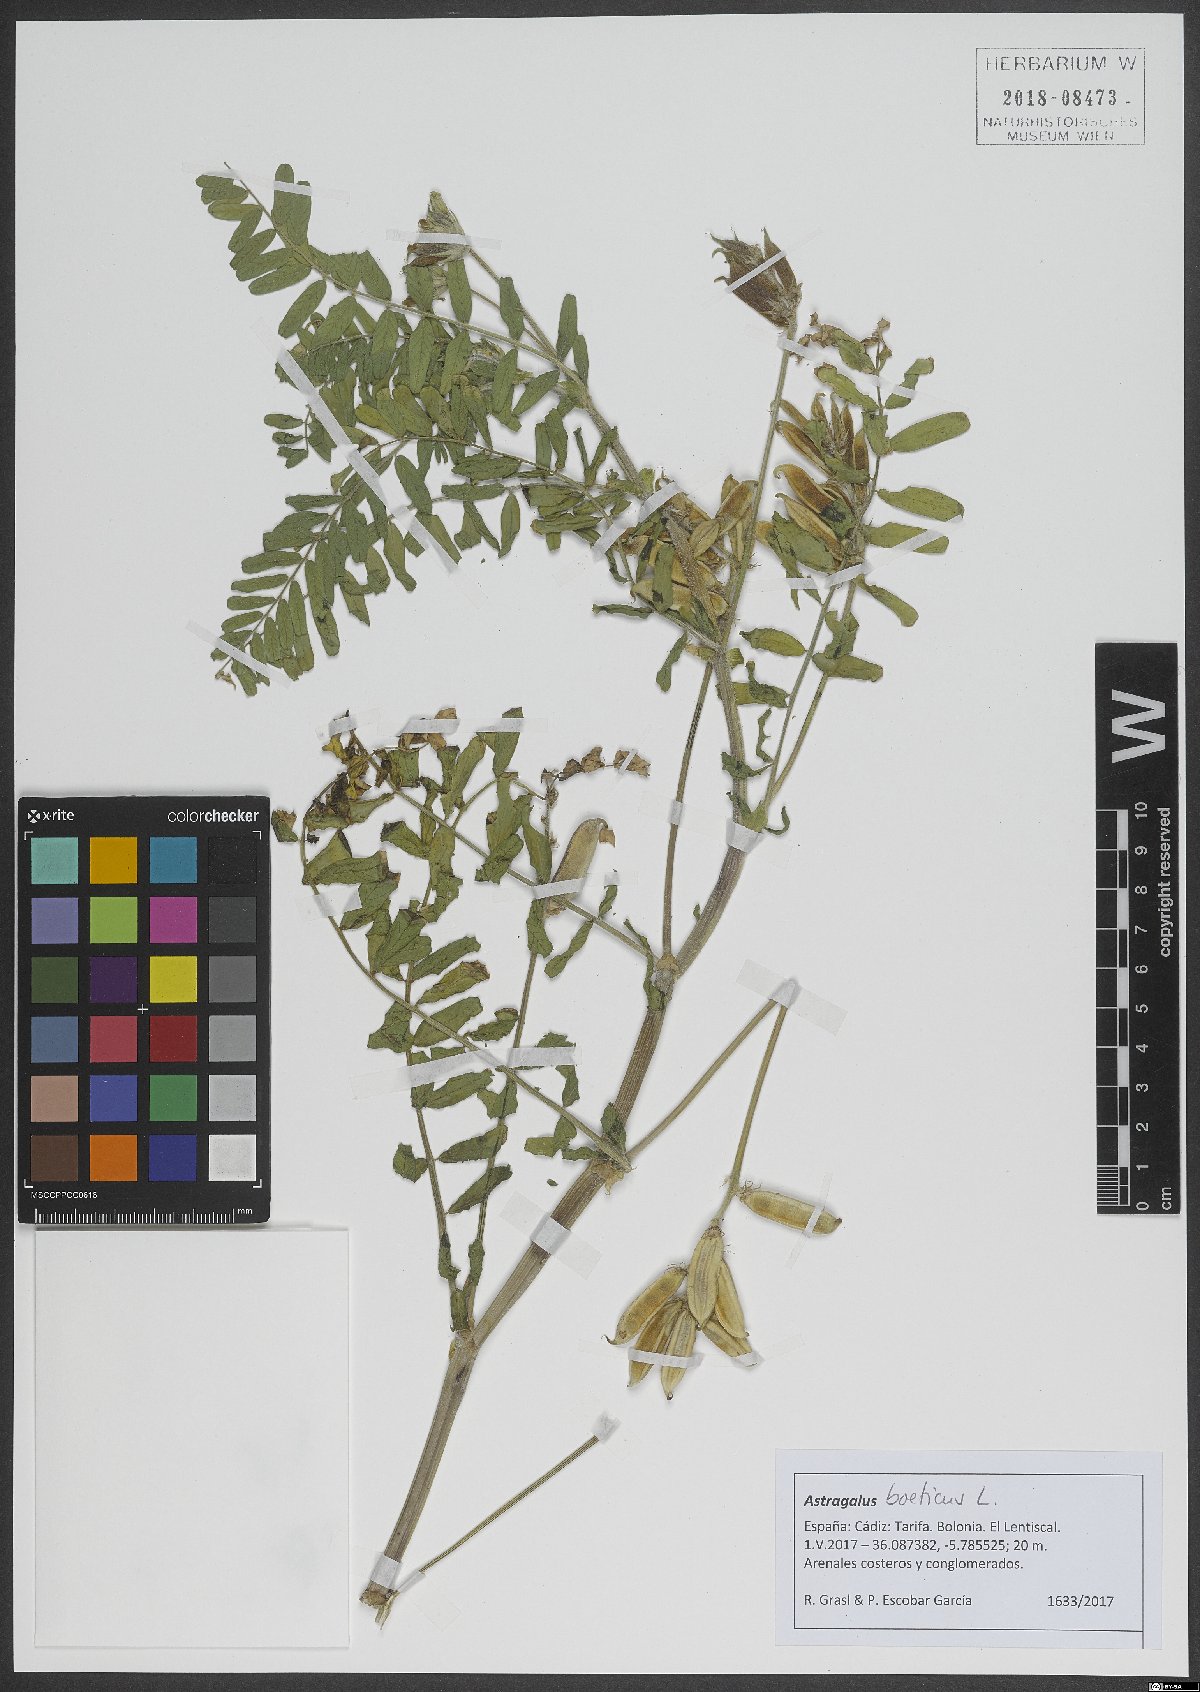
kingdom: Plantae
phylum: Tracheophyta
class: Magnoliopsida
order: Fabales
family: Fabaceae
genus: Astragalus
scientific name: Astragalus boeticus
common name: Milk-vetch
